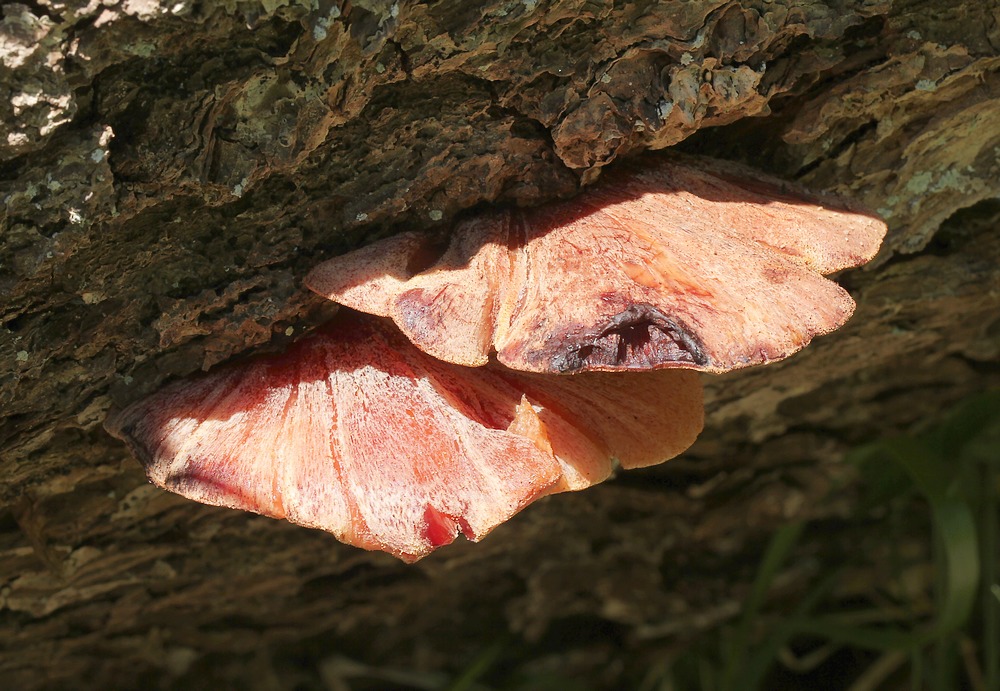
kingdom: Fungi
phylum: Basidiomycota
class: Agaricomycetes
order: Agaricales
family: Fistulinaceae
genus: Fistulina
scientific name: Fistulina hepatica
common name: oksetunge
